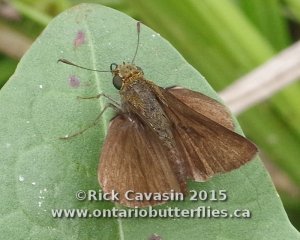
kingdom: Animalia
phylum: Arthropoda
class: Insecta
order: Lepidoptera
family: Hesperiidae
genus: Euphyes
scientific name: Euphyes vestris
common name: Dun Skipper
